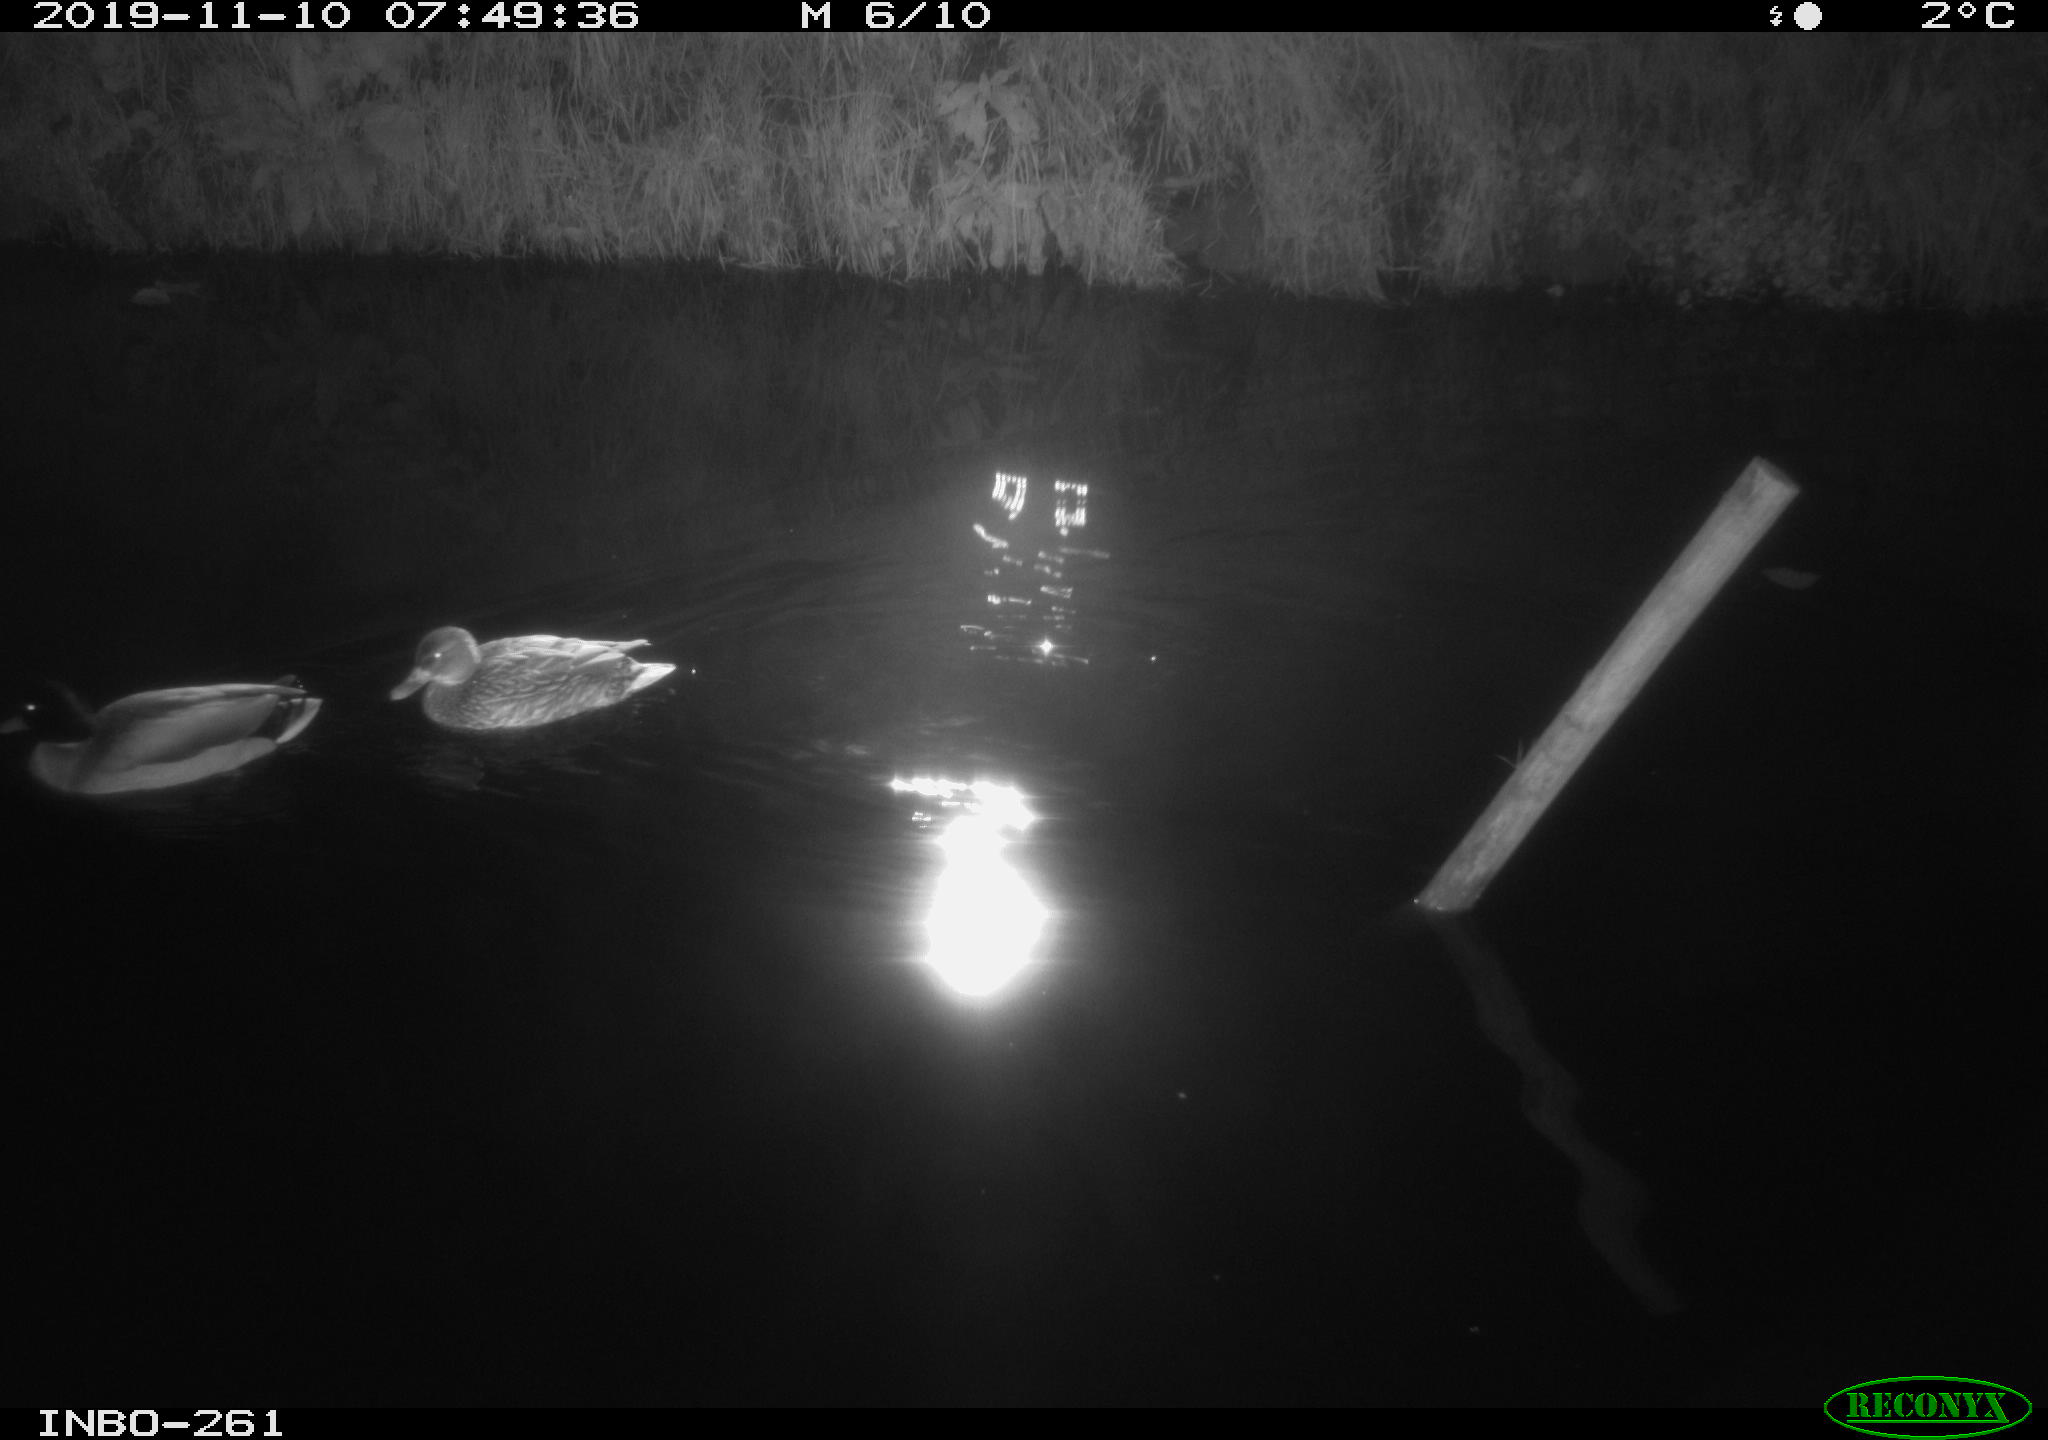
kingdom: Animalia
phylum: Chordata
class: Aves
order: Anseriformes
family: Anatidae
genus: Anas
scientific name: Anas platyrhynchos
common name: Mallard
